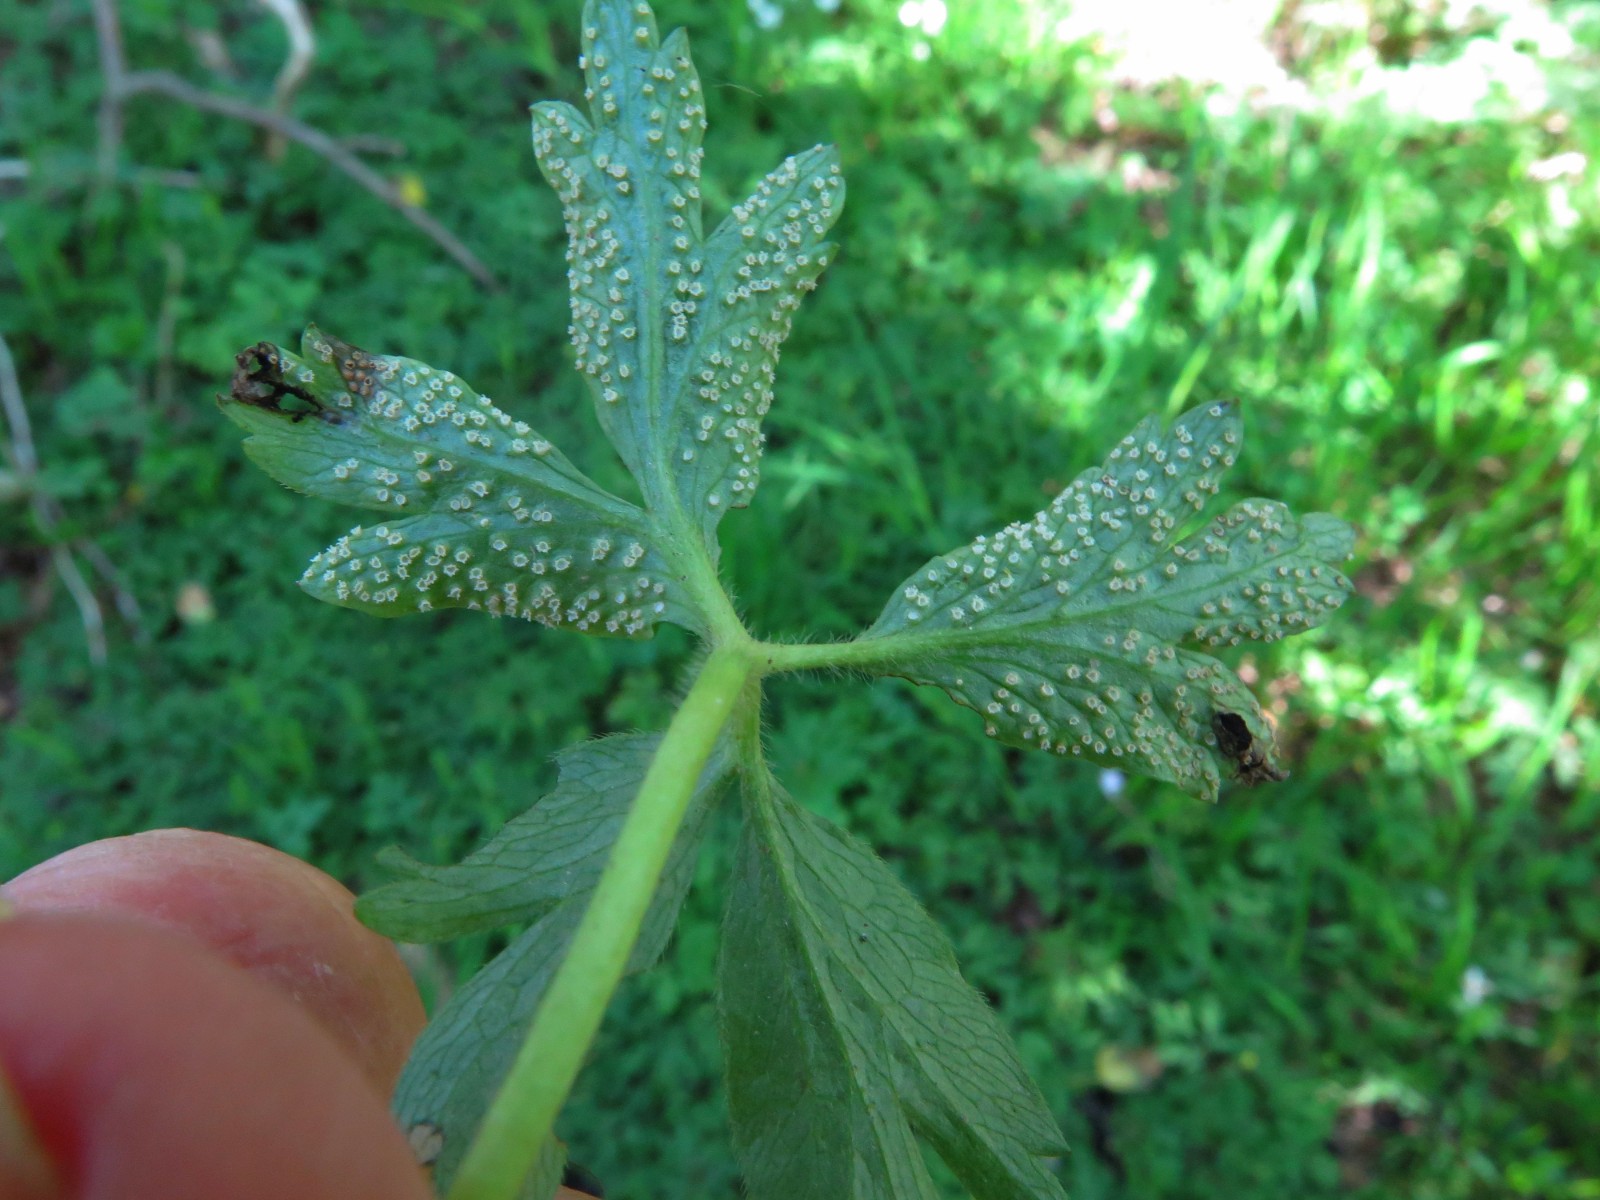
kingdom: Fungi
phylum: Basidiomycota
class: Pucciniomycetes
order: Pucciniales
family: Ochropsoraceae
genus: Ochropsora
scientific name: Ochropsora ariae
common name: anemone-okkerpletrust
